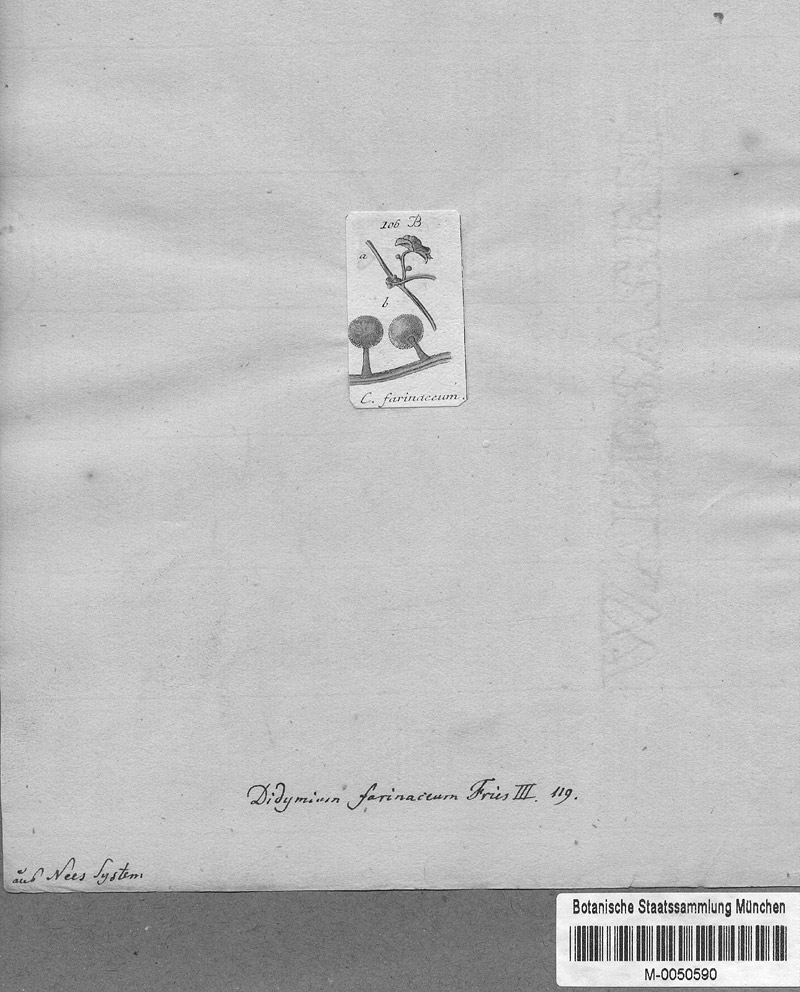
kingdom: Protozoa
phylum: Mycetozoa
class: Myxomycetes
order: Physarales
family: Didymiaceae
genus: Didymium
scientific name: Didymium melanospermum
